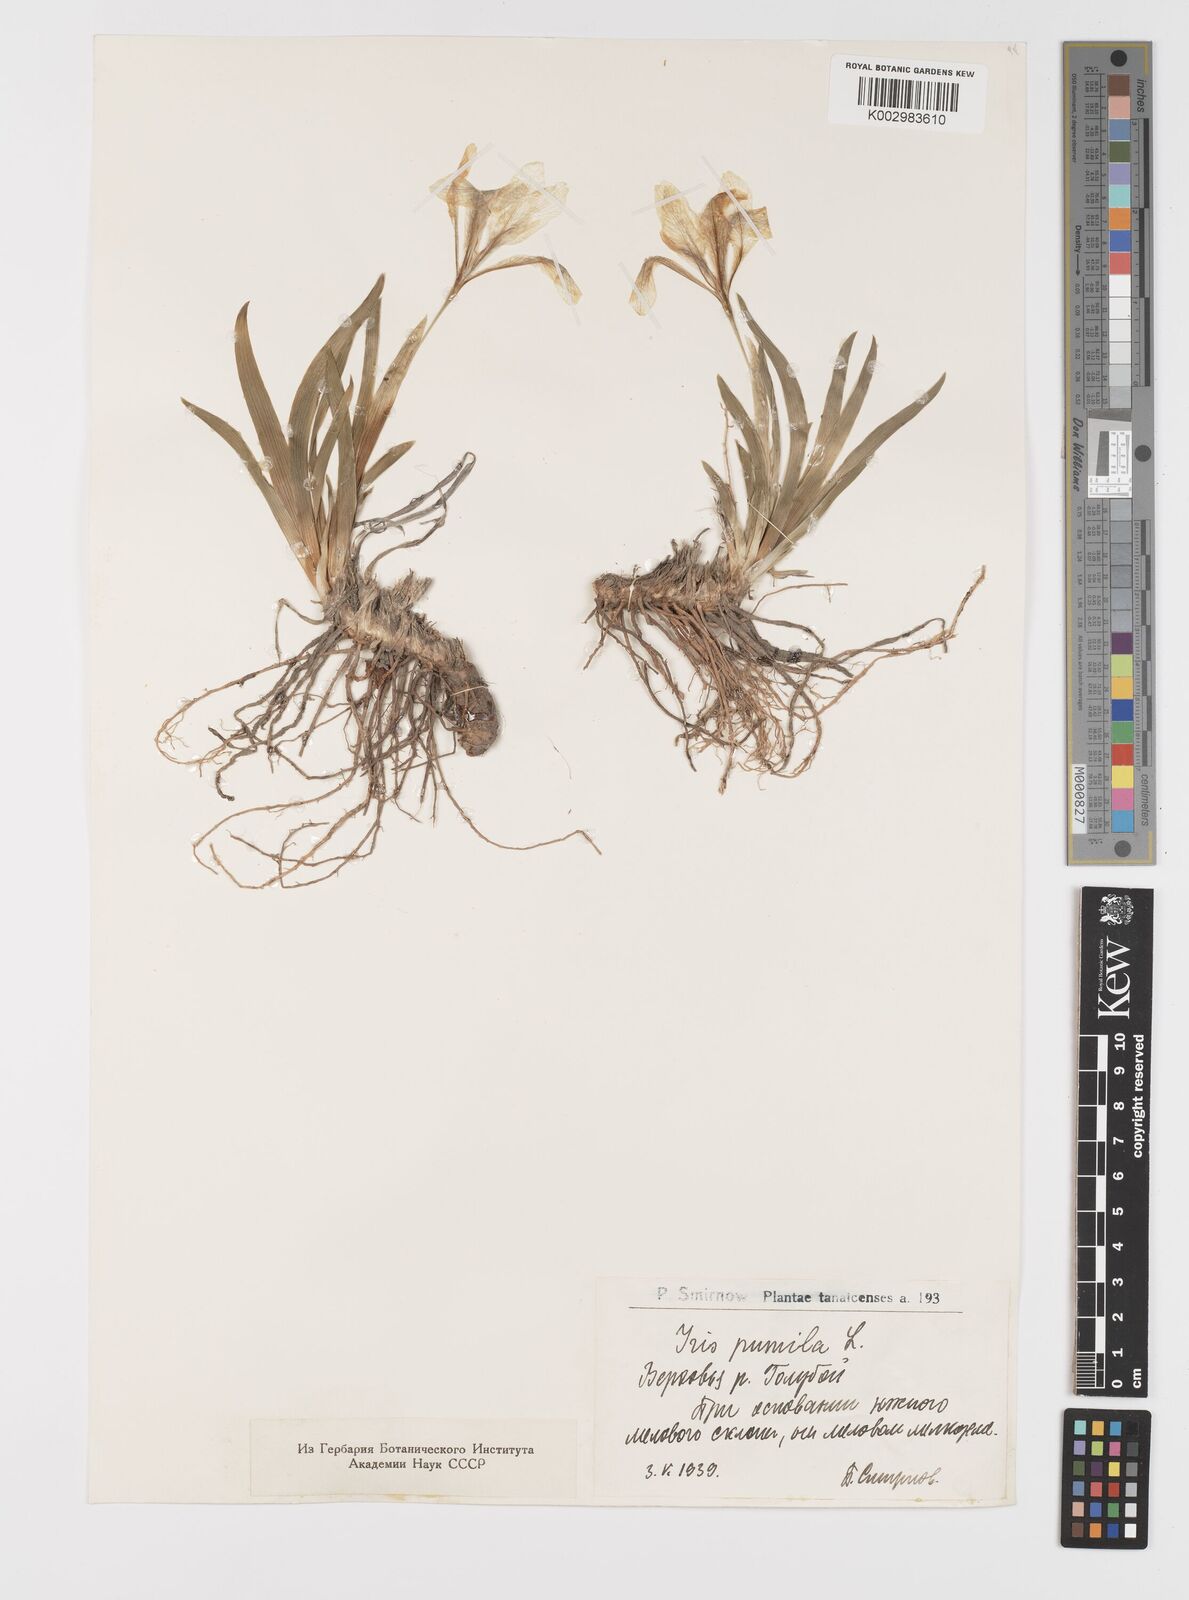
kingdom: Plantae
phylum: Tracheophyta
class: Liliopsida
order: Asparagales
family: Iridaceae
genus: Iris
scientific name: Iris pumila
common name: Dwarf iris
